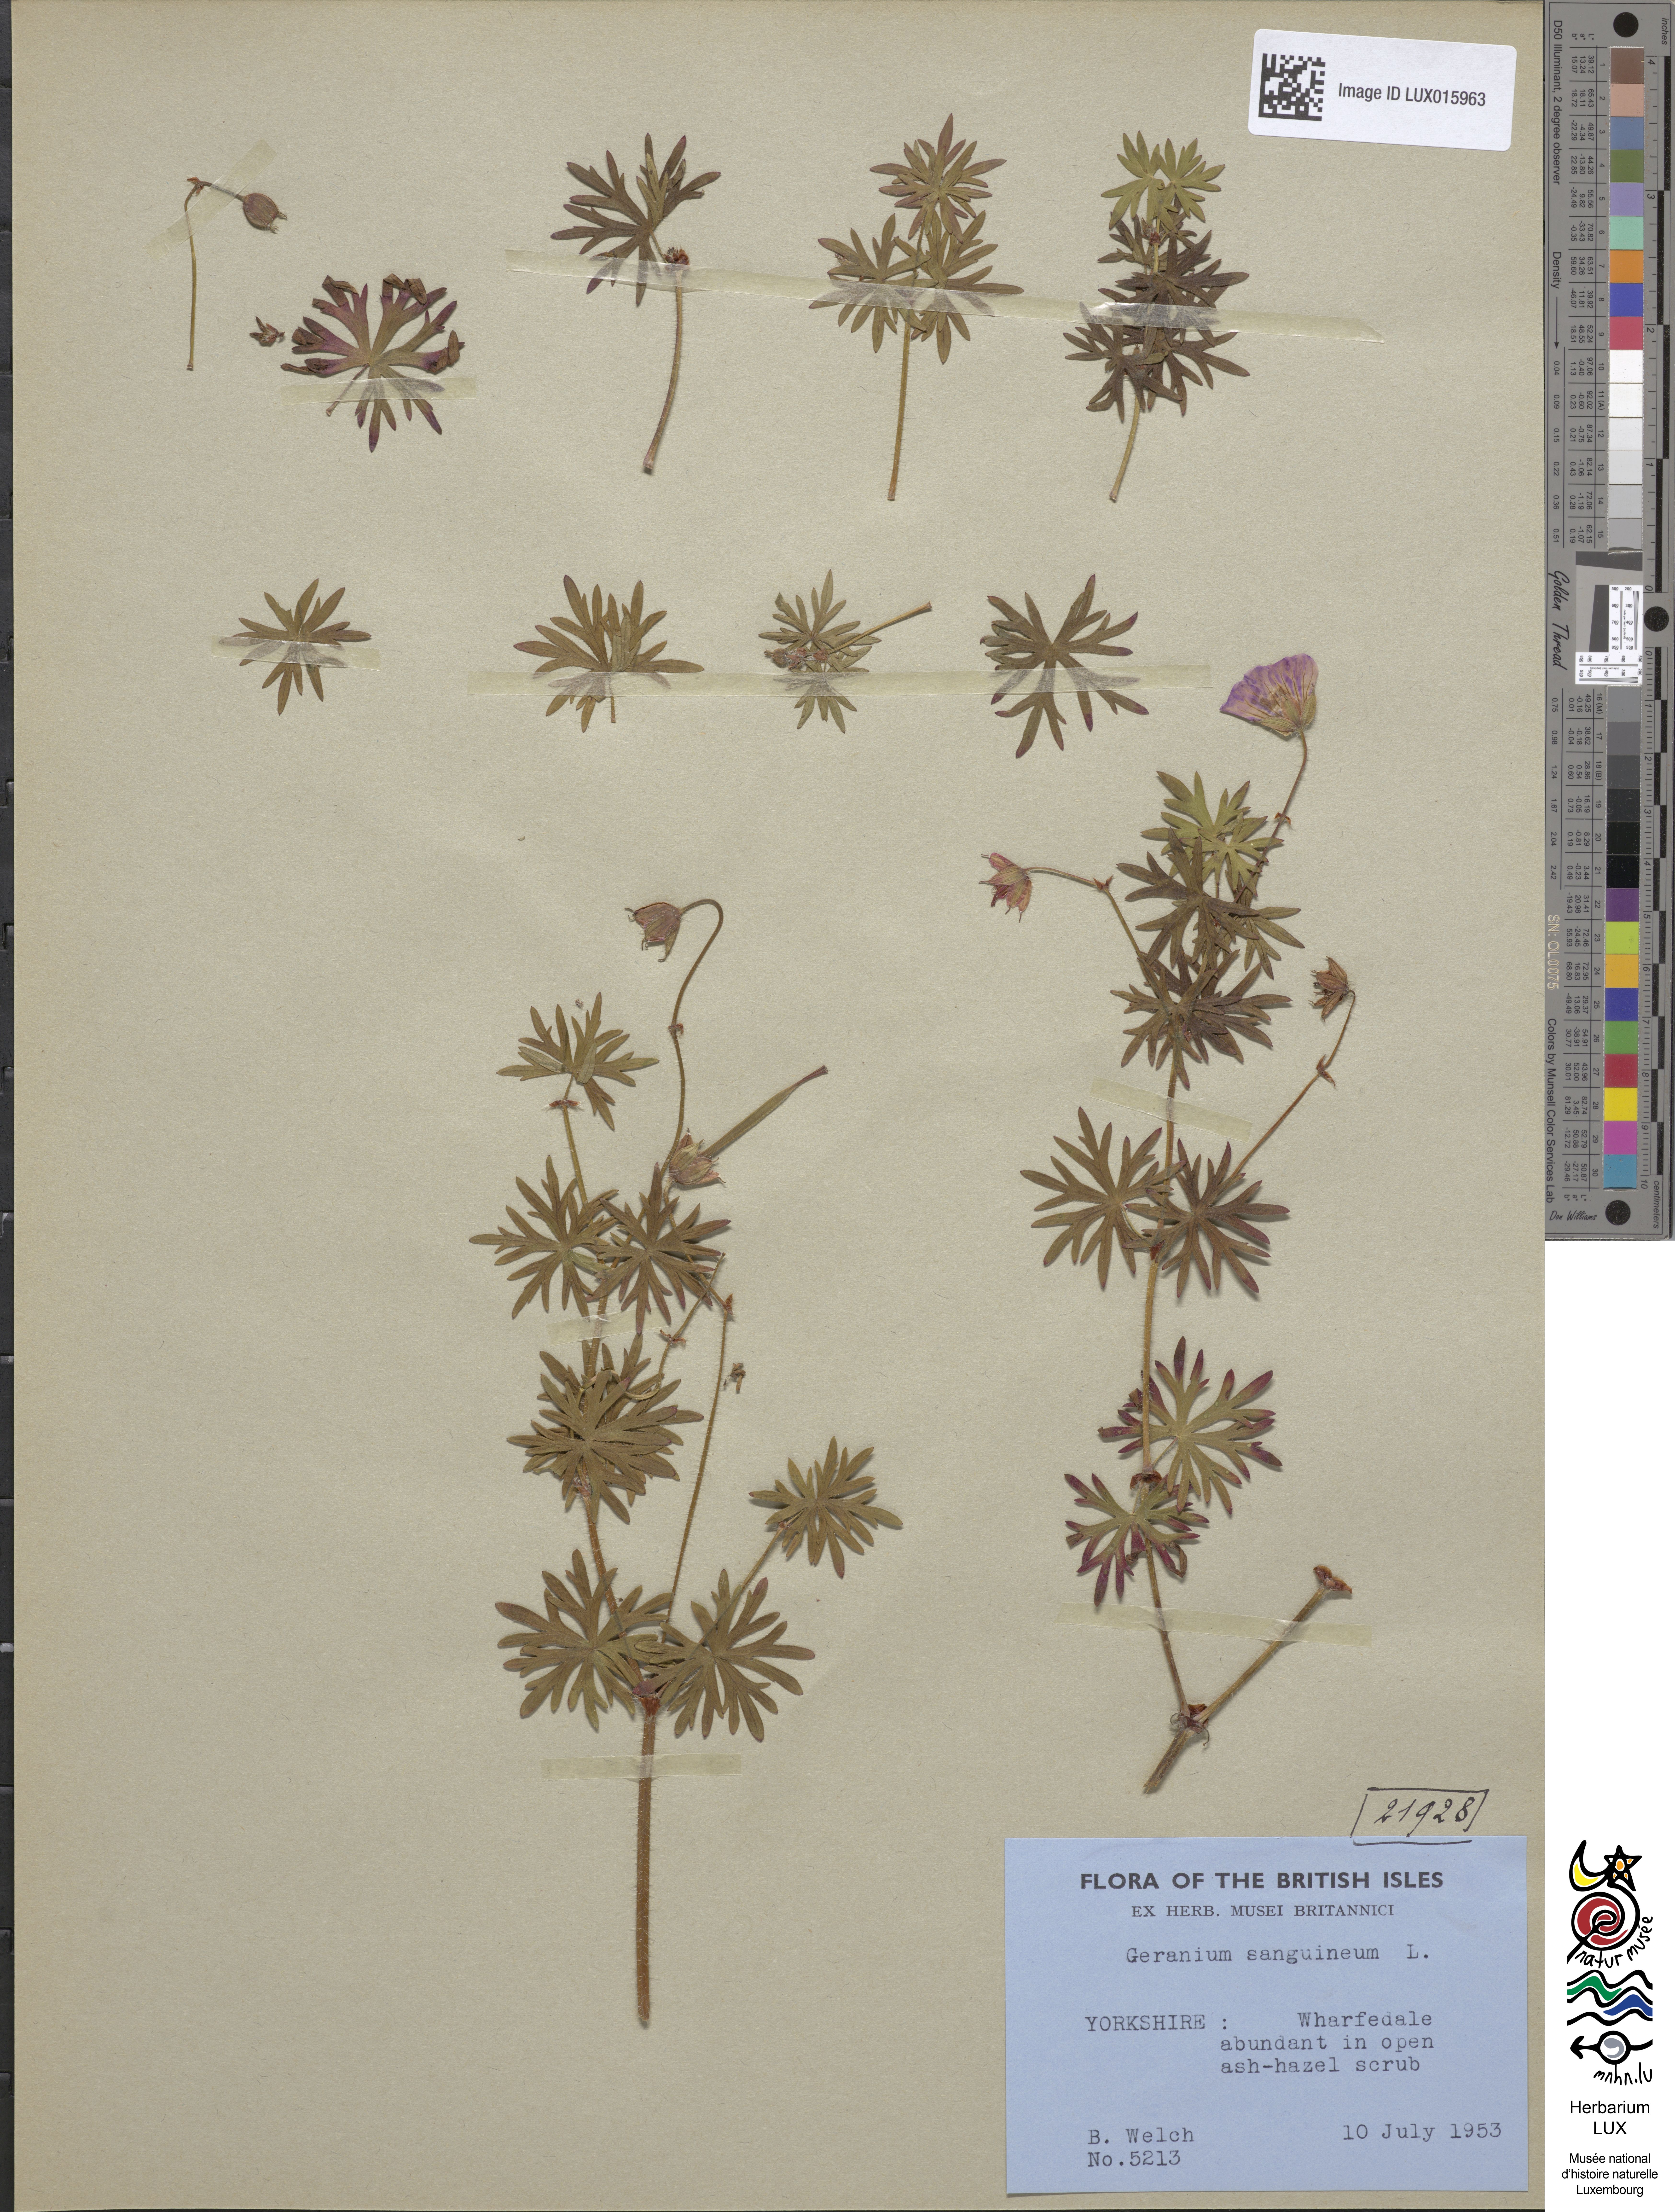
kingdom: Plantae
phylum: Tracheophyta
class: Magnoliopsida
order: Geraniales
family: Geraniaceae
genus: Geranium
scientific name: Geranium sanguineum
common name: Bloody crane's-bill
